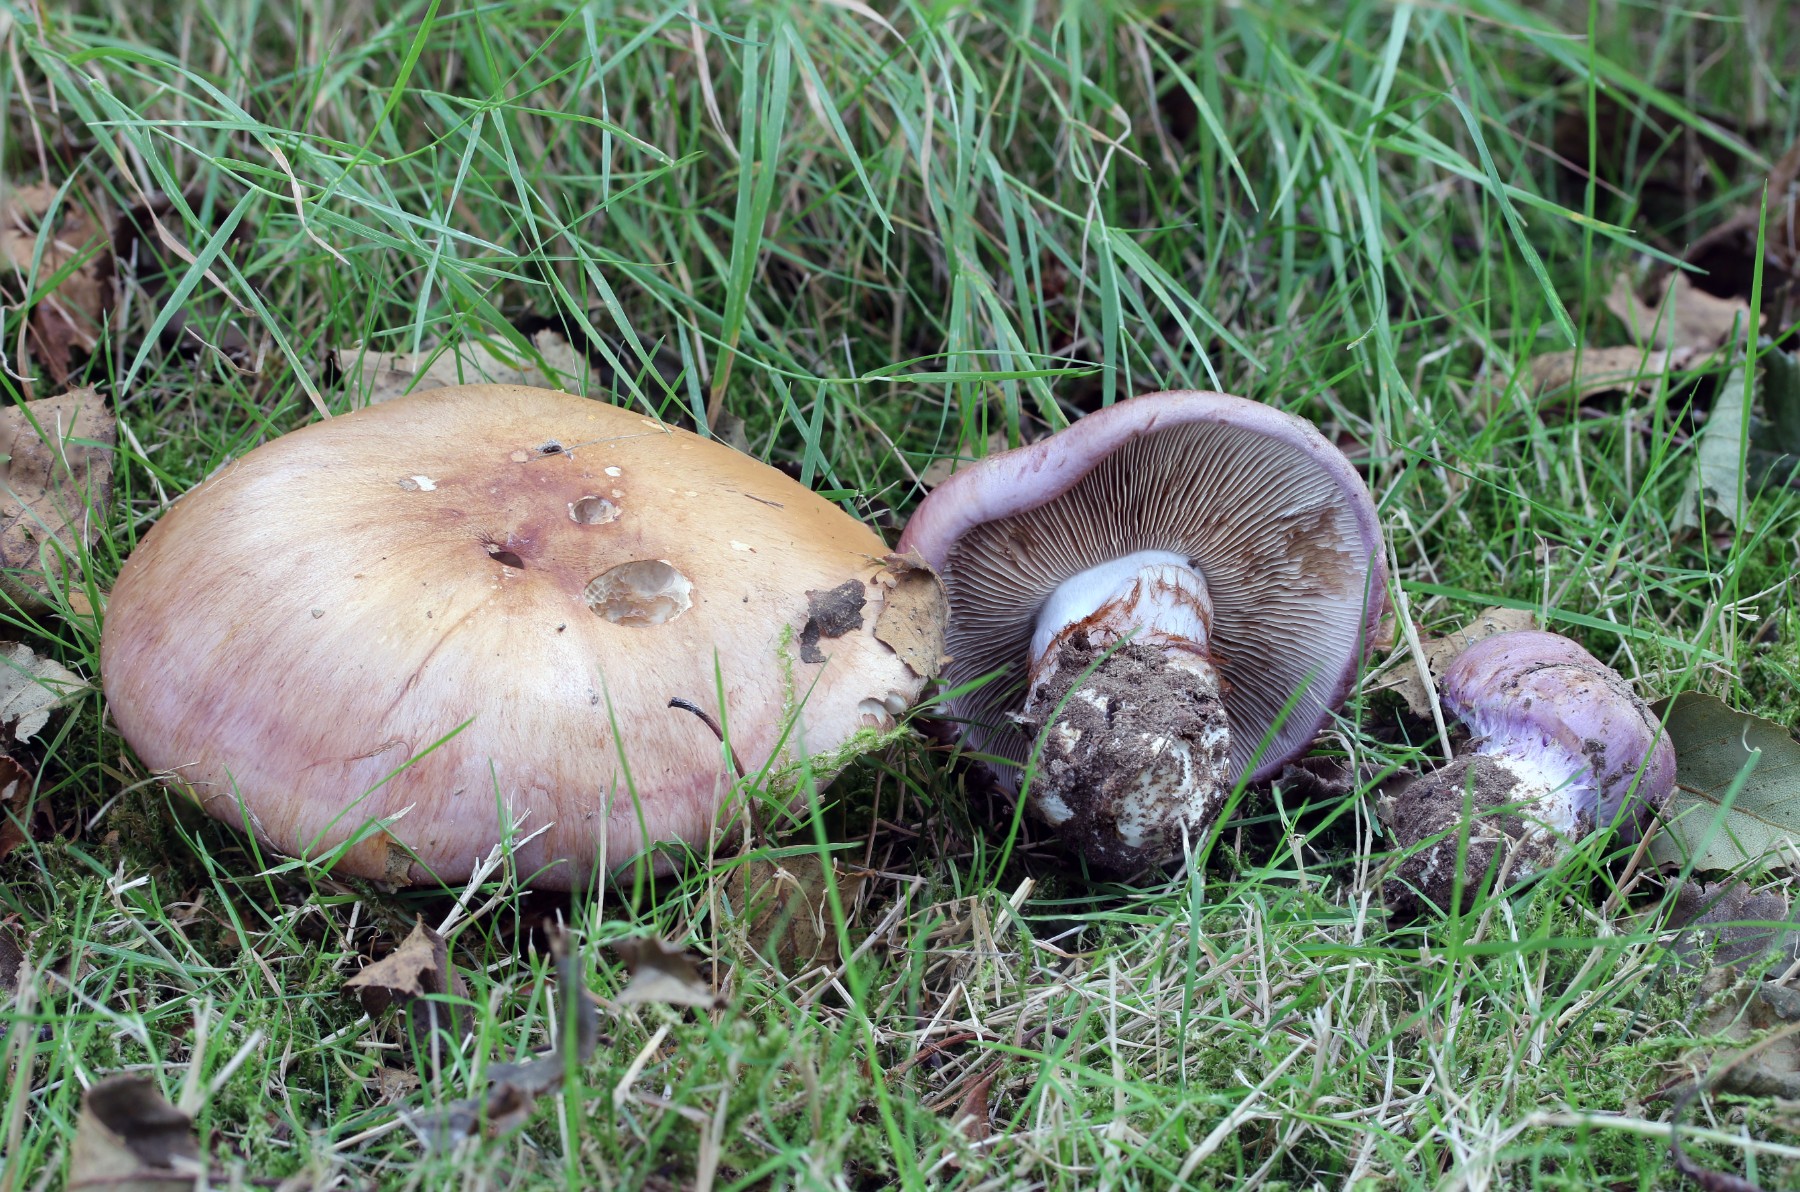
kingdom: Fungi
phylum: Basidiomycota
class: Agaricomycetes
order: Agaricales
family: Cortinariaceae
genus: Phlegmacium
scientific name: Phlegmacium balteatocumatile
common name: violettrådet slørhat
